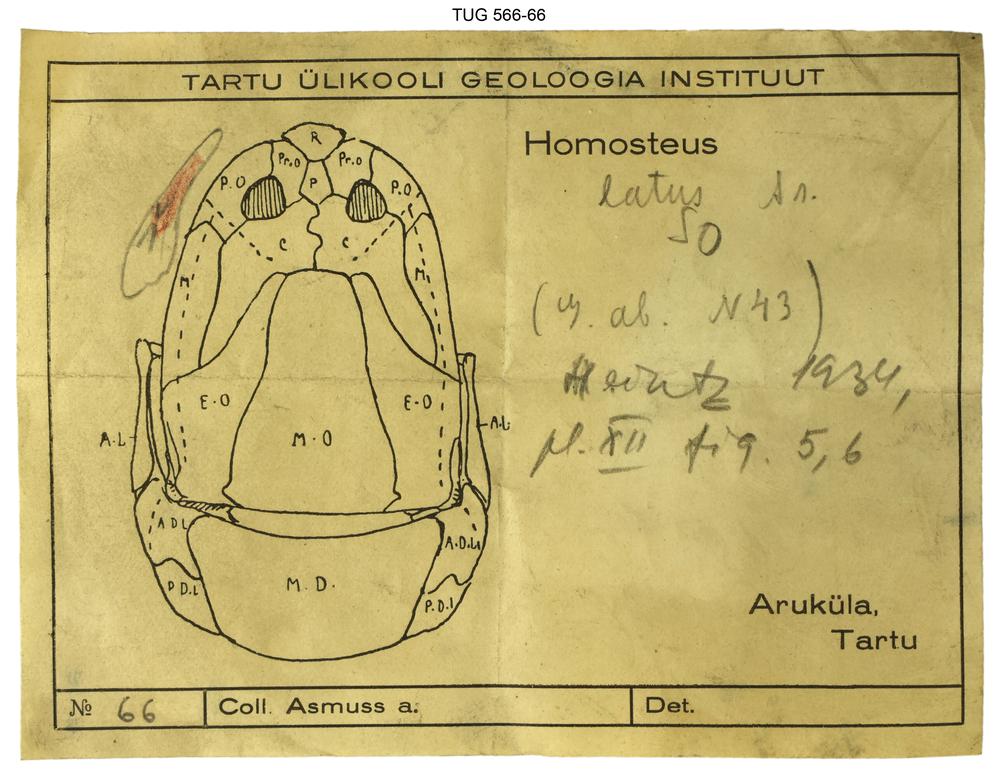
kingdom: Animalia
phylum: Chordata
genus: Homosteus
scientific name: Homosteus latus
